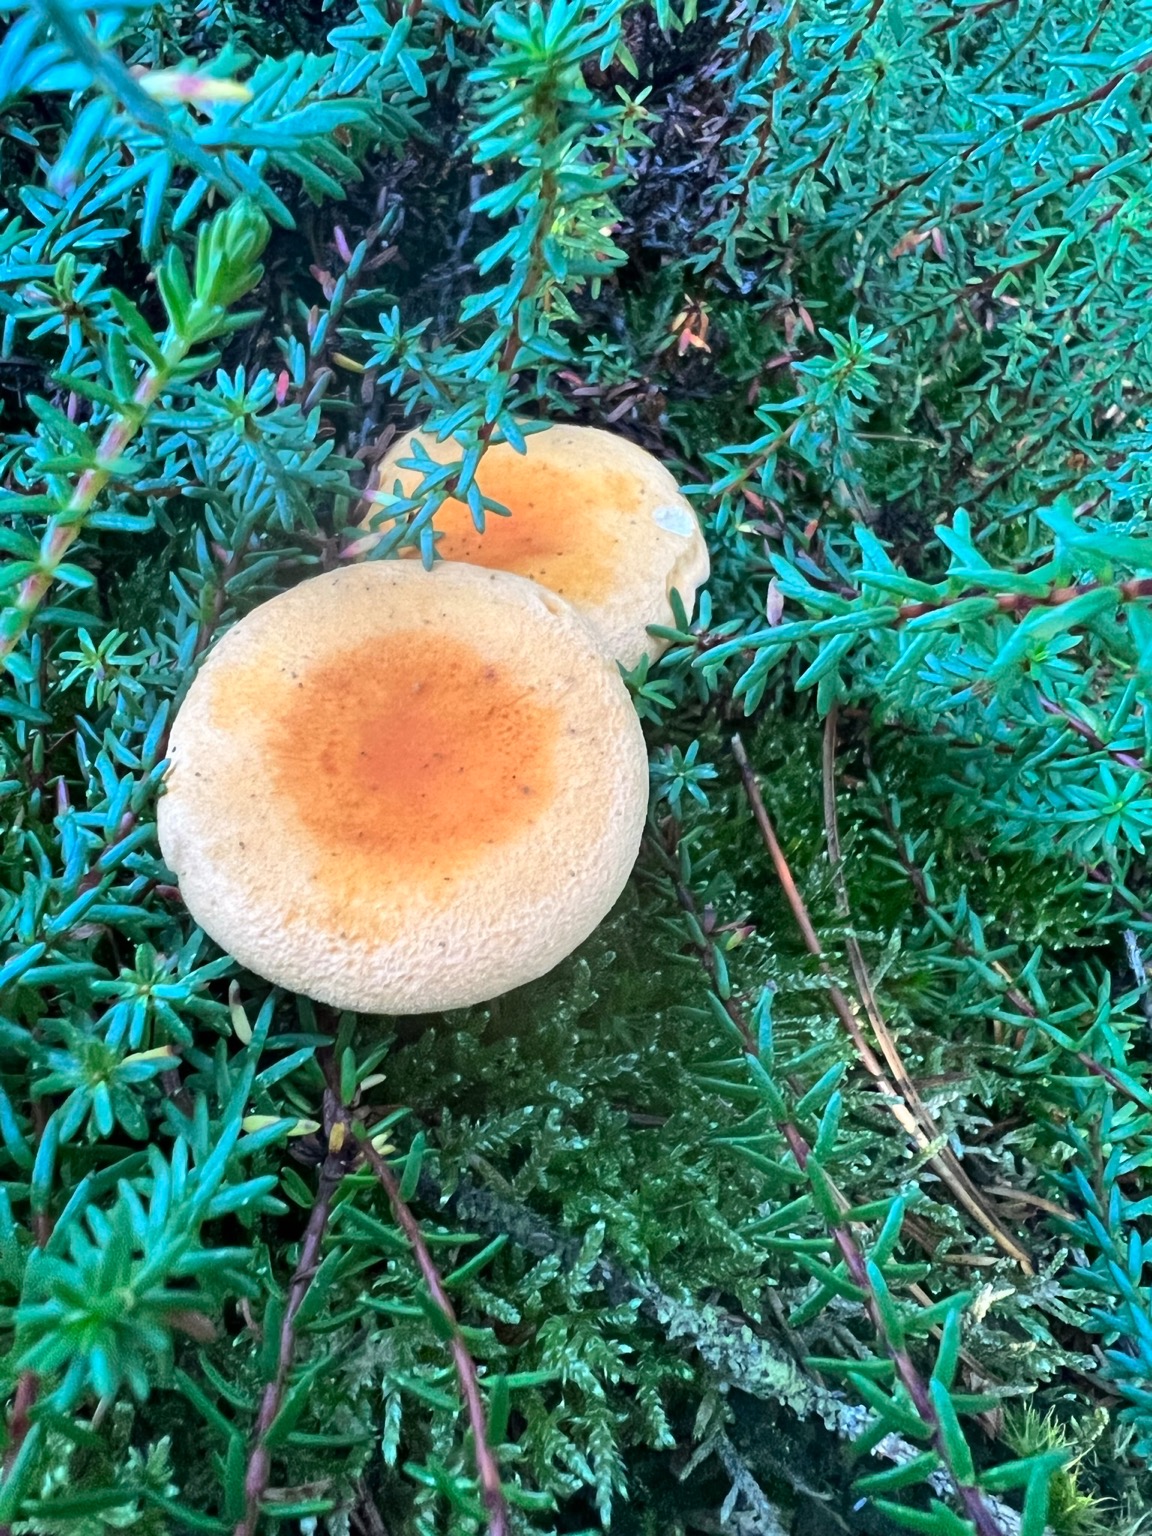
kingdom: Fungi
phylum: Basidiomycota
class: Agaricomycetes
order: Boletales
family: Hygrophoropsidaceae
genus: Hygrophoropsis
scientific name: Hygrophoropsis aurantiaca
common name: Almindelig orangekantarel
